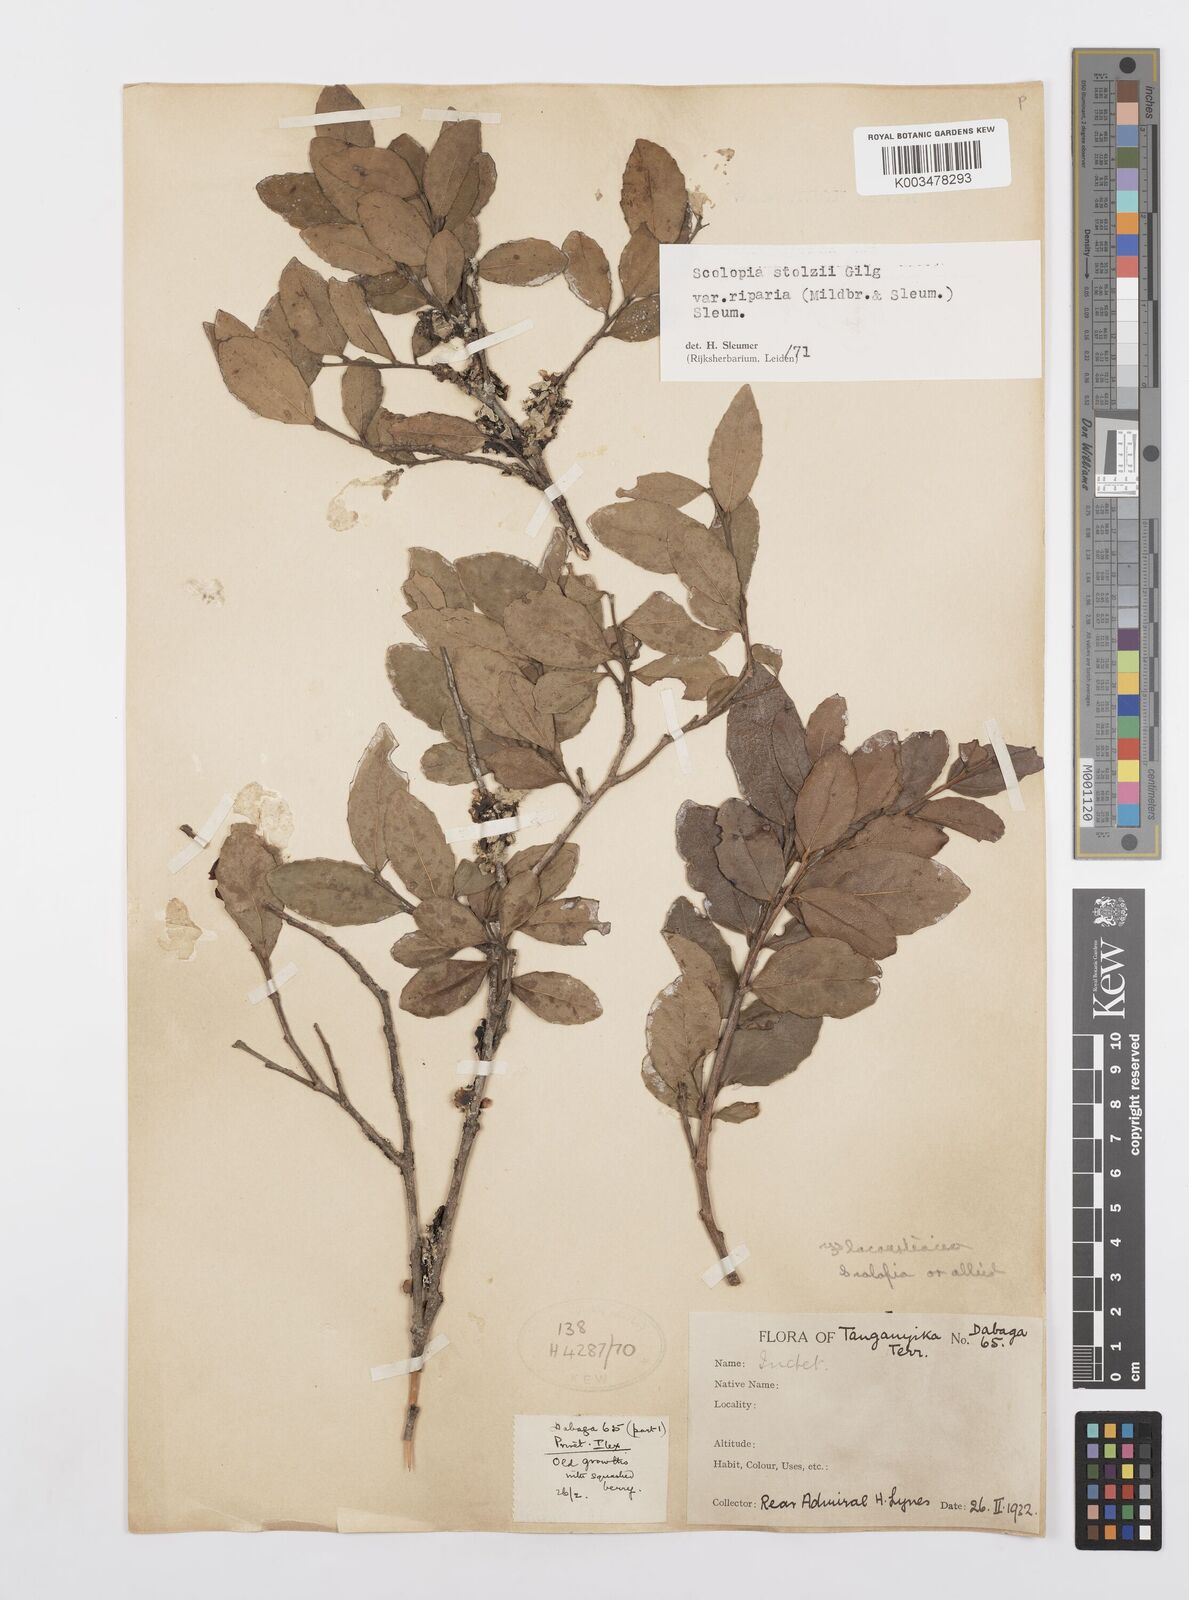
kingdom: Plantae
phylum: Tracheophyta
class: Magnoliopsida
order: Malpighiales
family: Salicaceae
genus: Scolopia
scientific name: Scolopia stolzii
